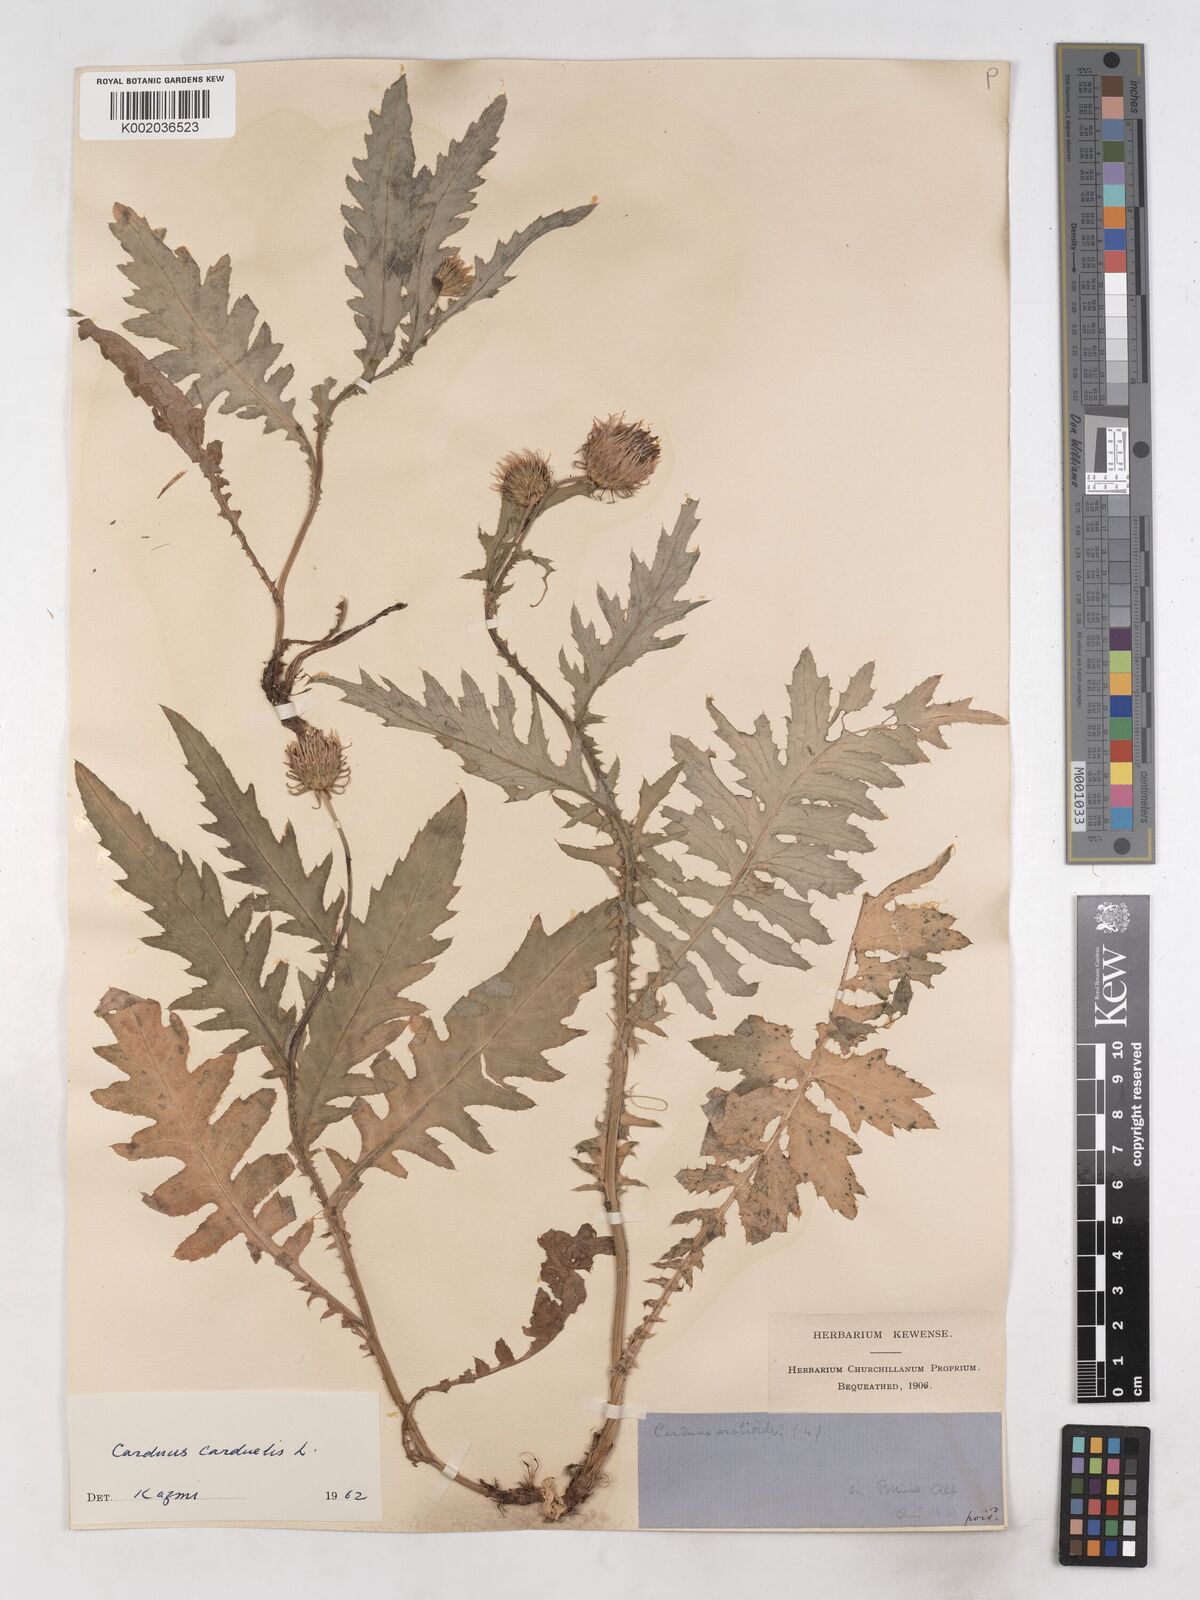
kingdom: Plantae
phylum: Tracheophyta
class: Magnoliopsida
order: Asterales
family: Asteraceae
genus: Carduus
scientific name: Carduus carduelis
